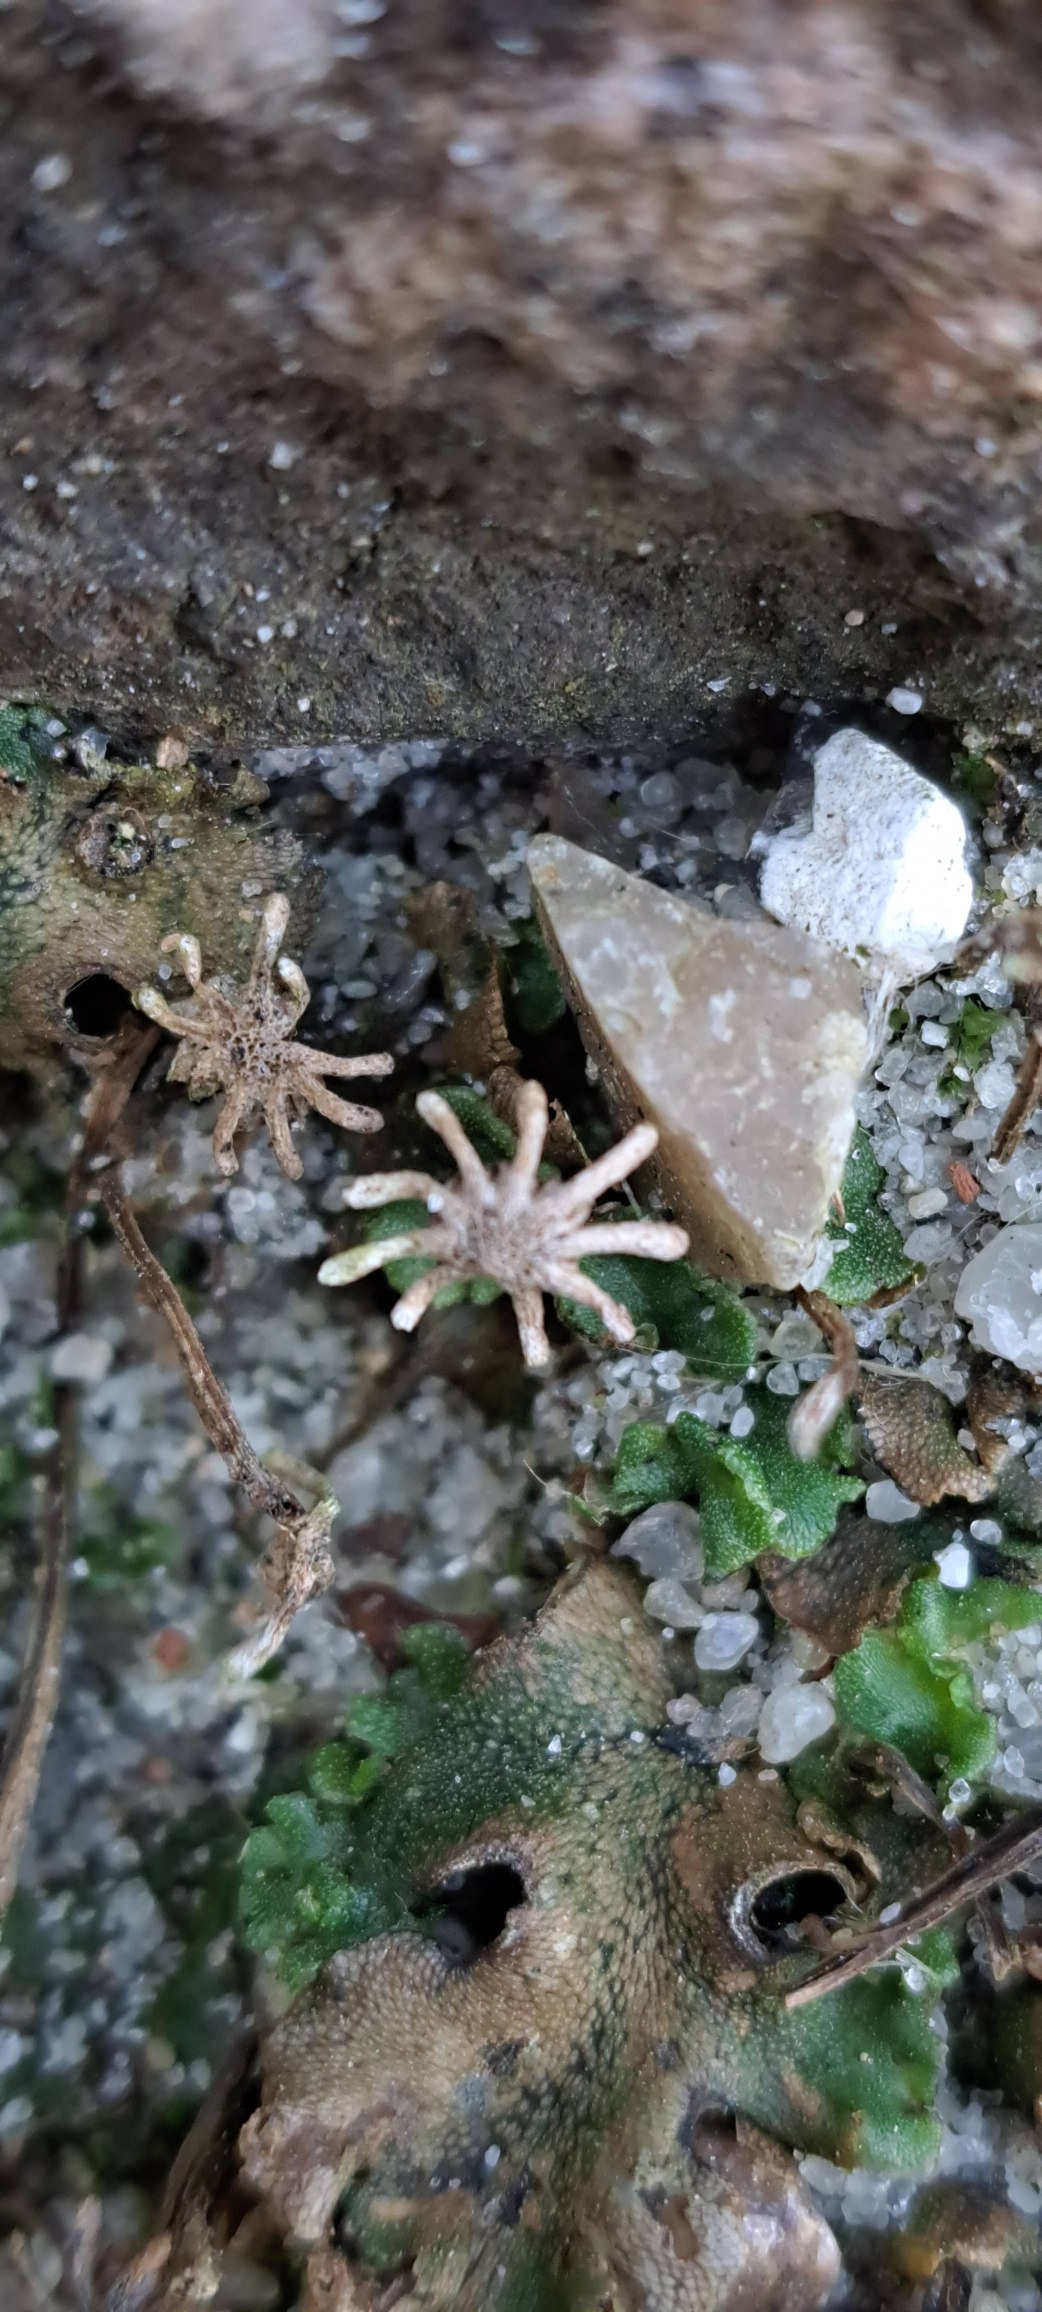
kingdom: Plantae
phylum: Marchantiophyta
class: Marchantiopsida
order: Marchantiales
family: Marchantiaceae
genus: Marchantia
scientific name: Marchantia polymorpha
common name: Almindelig lungemos (underart)
